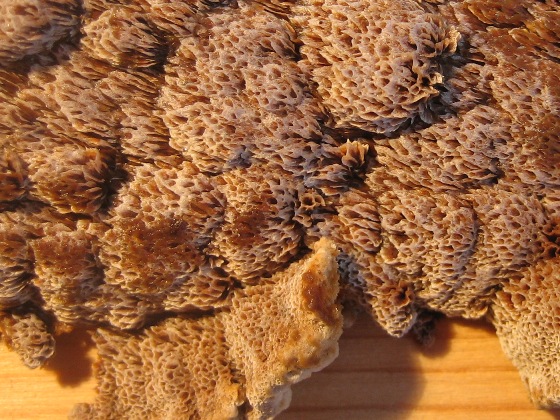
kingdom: Fungi
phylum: Basidiomycota
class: Agaricomycetes
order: Hymenochaetales
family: Hymenochaetaceae
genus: Mensularia
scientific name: Mensularia nodulosa
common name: bøge-spejlporesvamp
